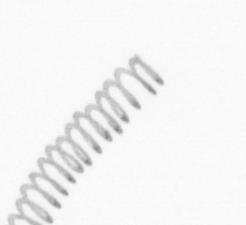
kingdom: Chromista
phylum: Ochrophyta
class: Bacillariophyceae
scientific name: Bacillariophyceae
